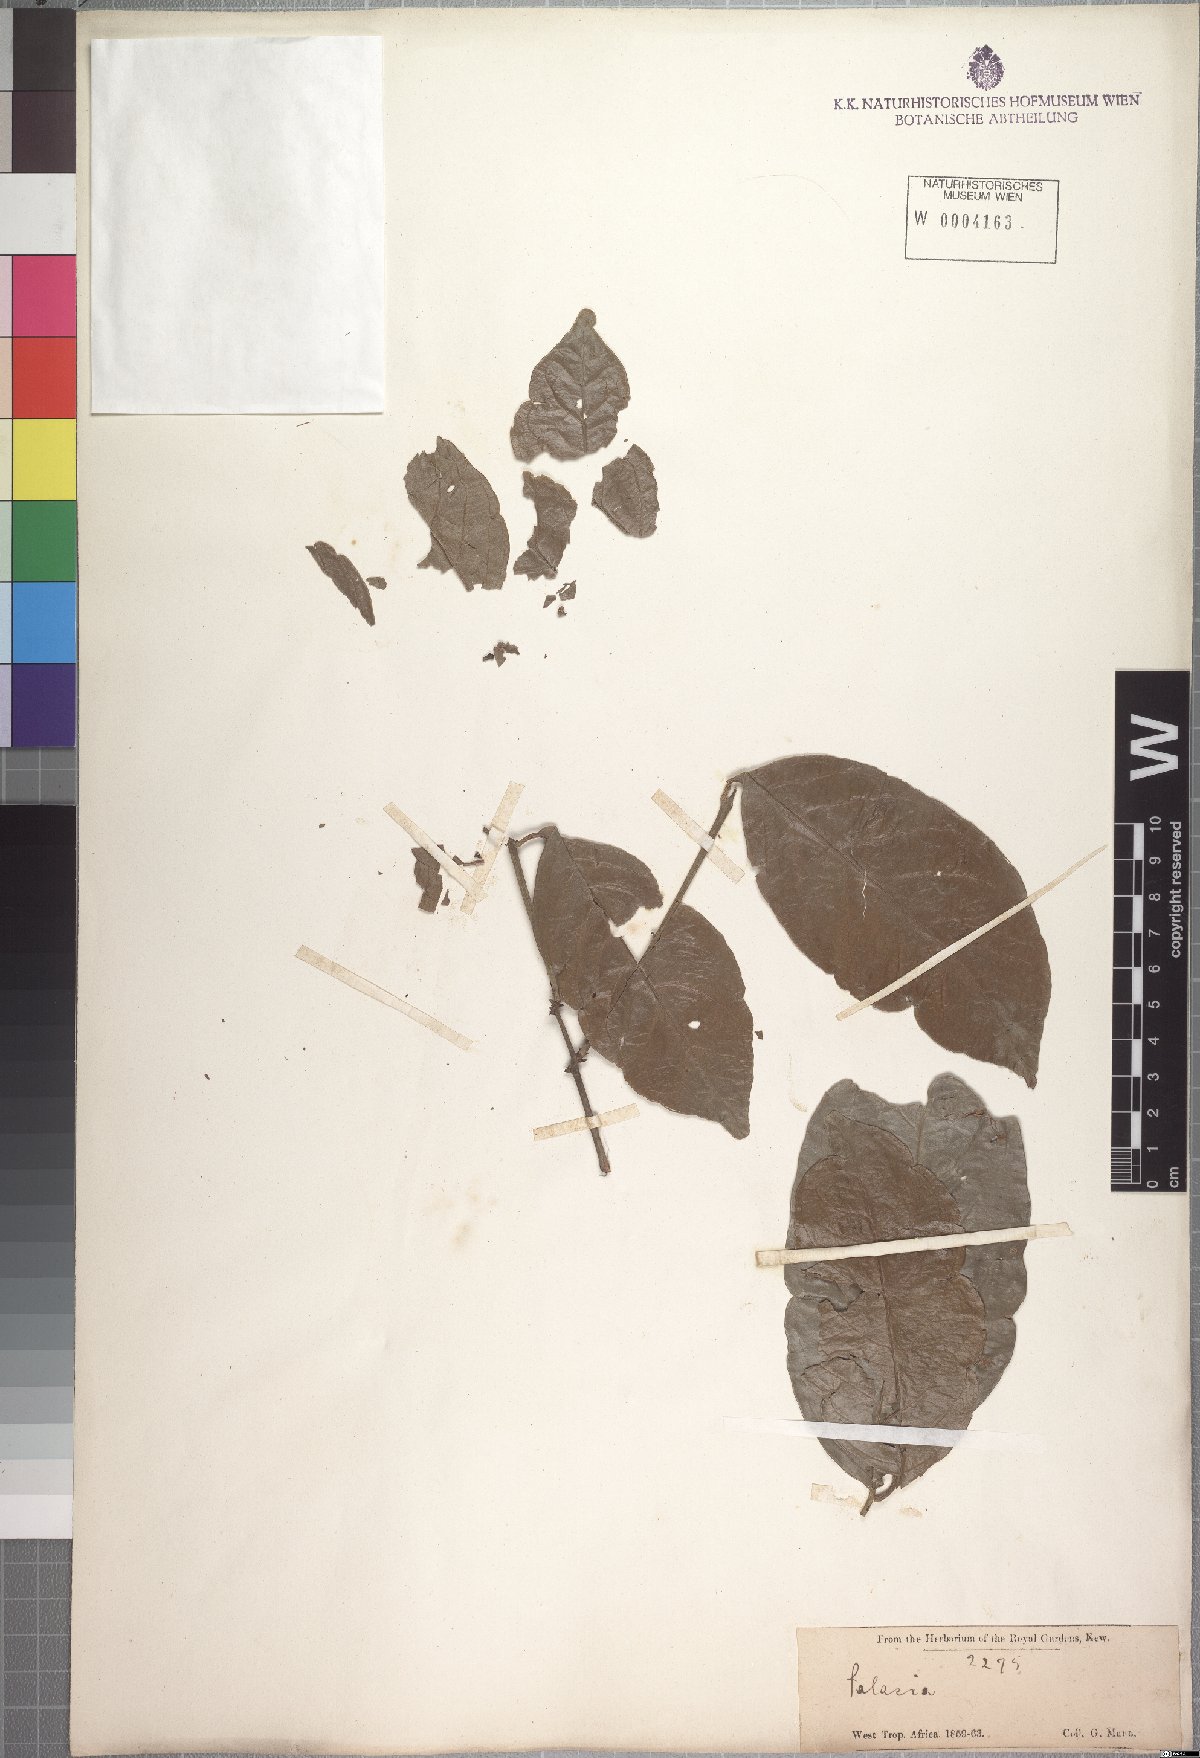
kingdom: Plantae
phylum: Tracheophyta
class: Magnoliopsida
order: Celastrales
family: Celastraceae
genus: Salacia
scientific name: Salacia nitida
